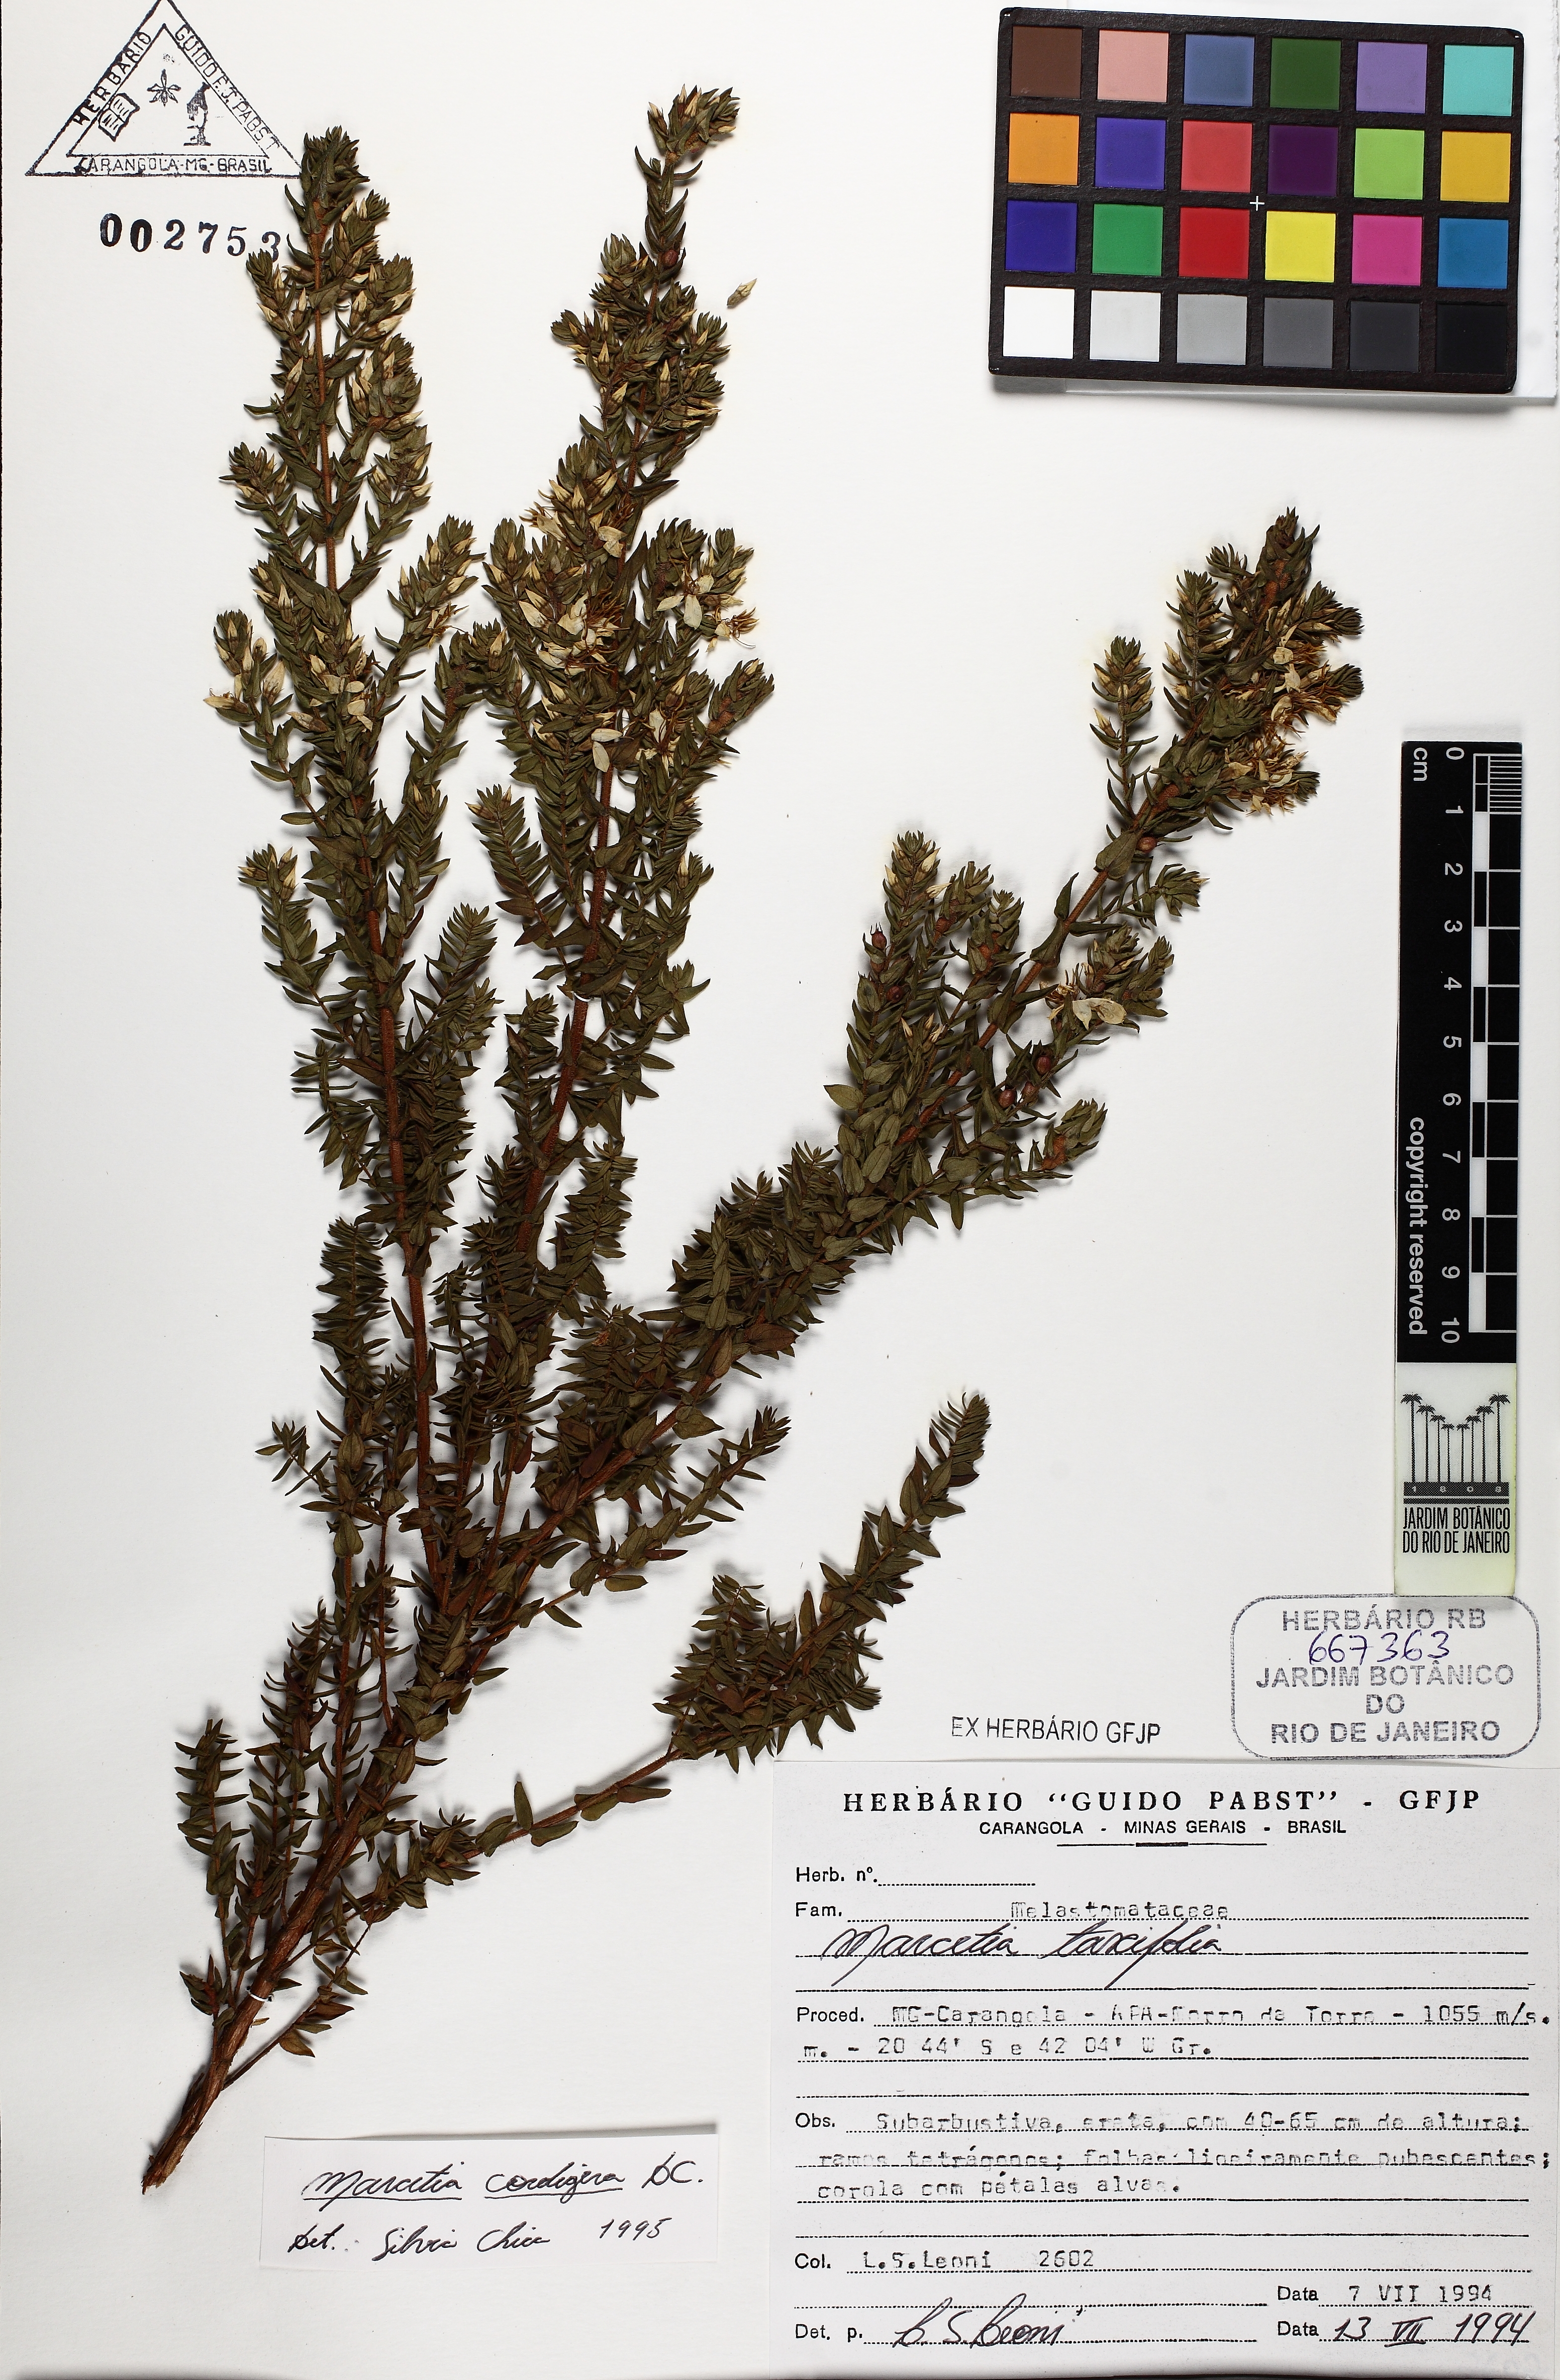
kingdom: Plantae
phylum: Tracheophyta
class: Magnoliopsida
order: Myrtales
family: Melastomataceae
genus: Marcetia
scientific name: Marcetia taxifolia
